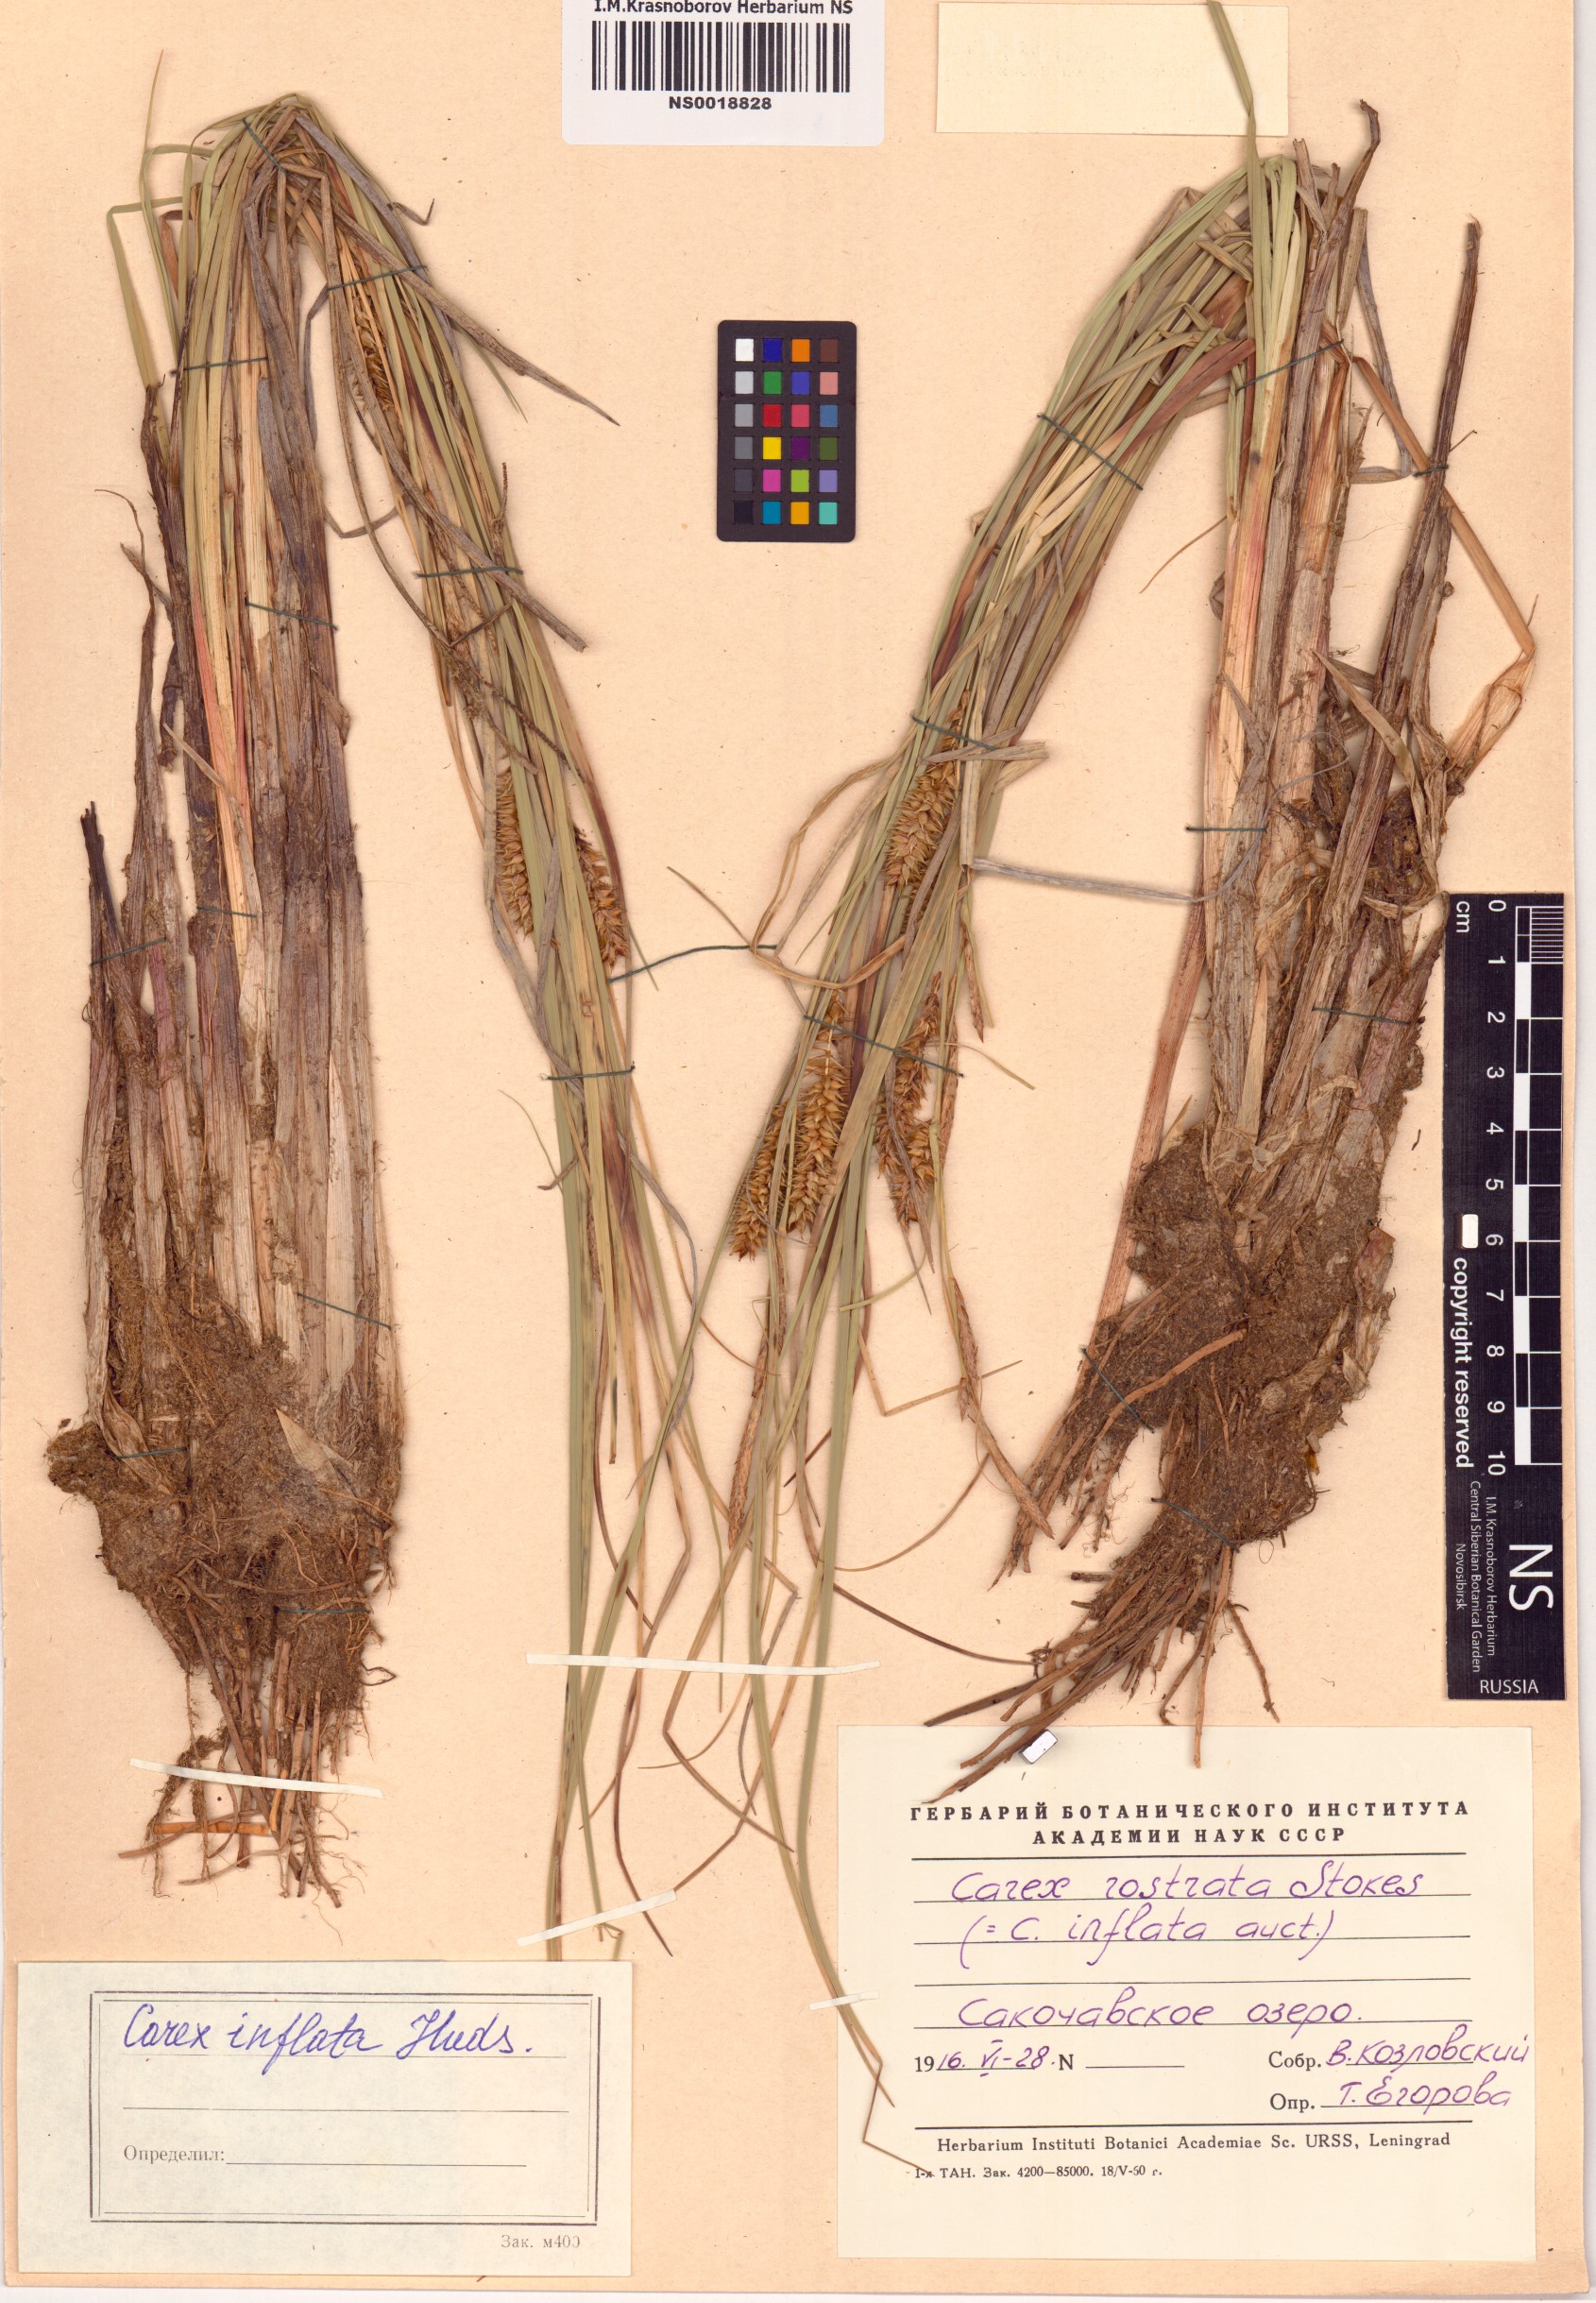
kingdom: Plantae
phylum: Tracheophyta
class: Liliopsida
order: Poales
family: Cyperaceae
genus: Carex
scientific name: Carex rostrata
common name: Bottle sedge
